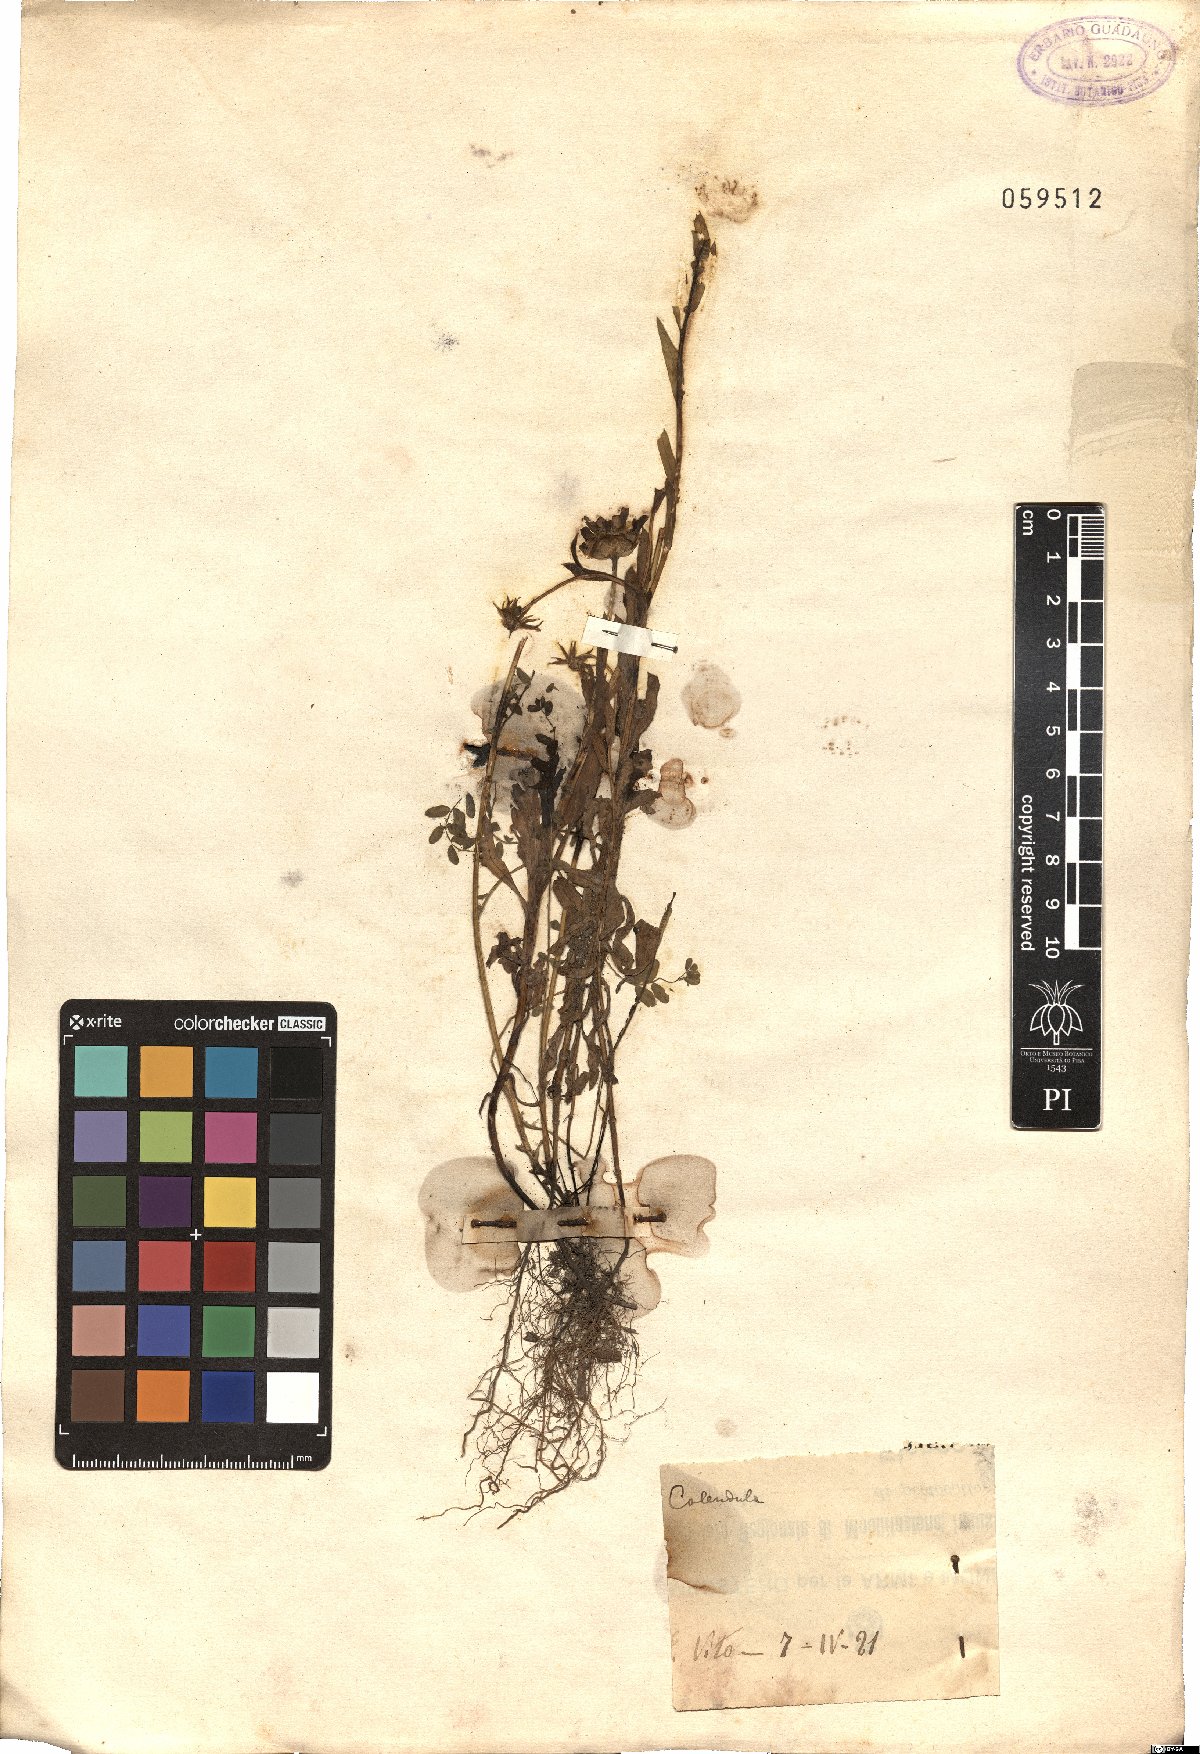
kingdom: Plantae
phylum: Tracheophyta
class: Magnoliopsida
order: Asterales
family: Asteraceae
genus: Calendula
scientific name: Calendula
